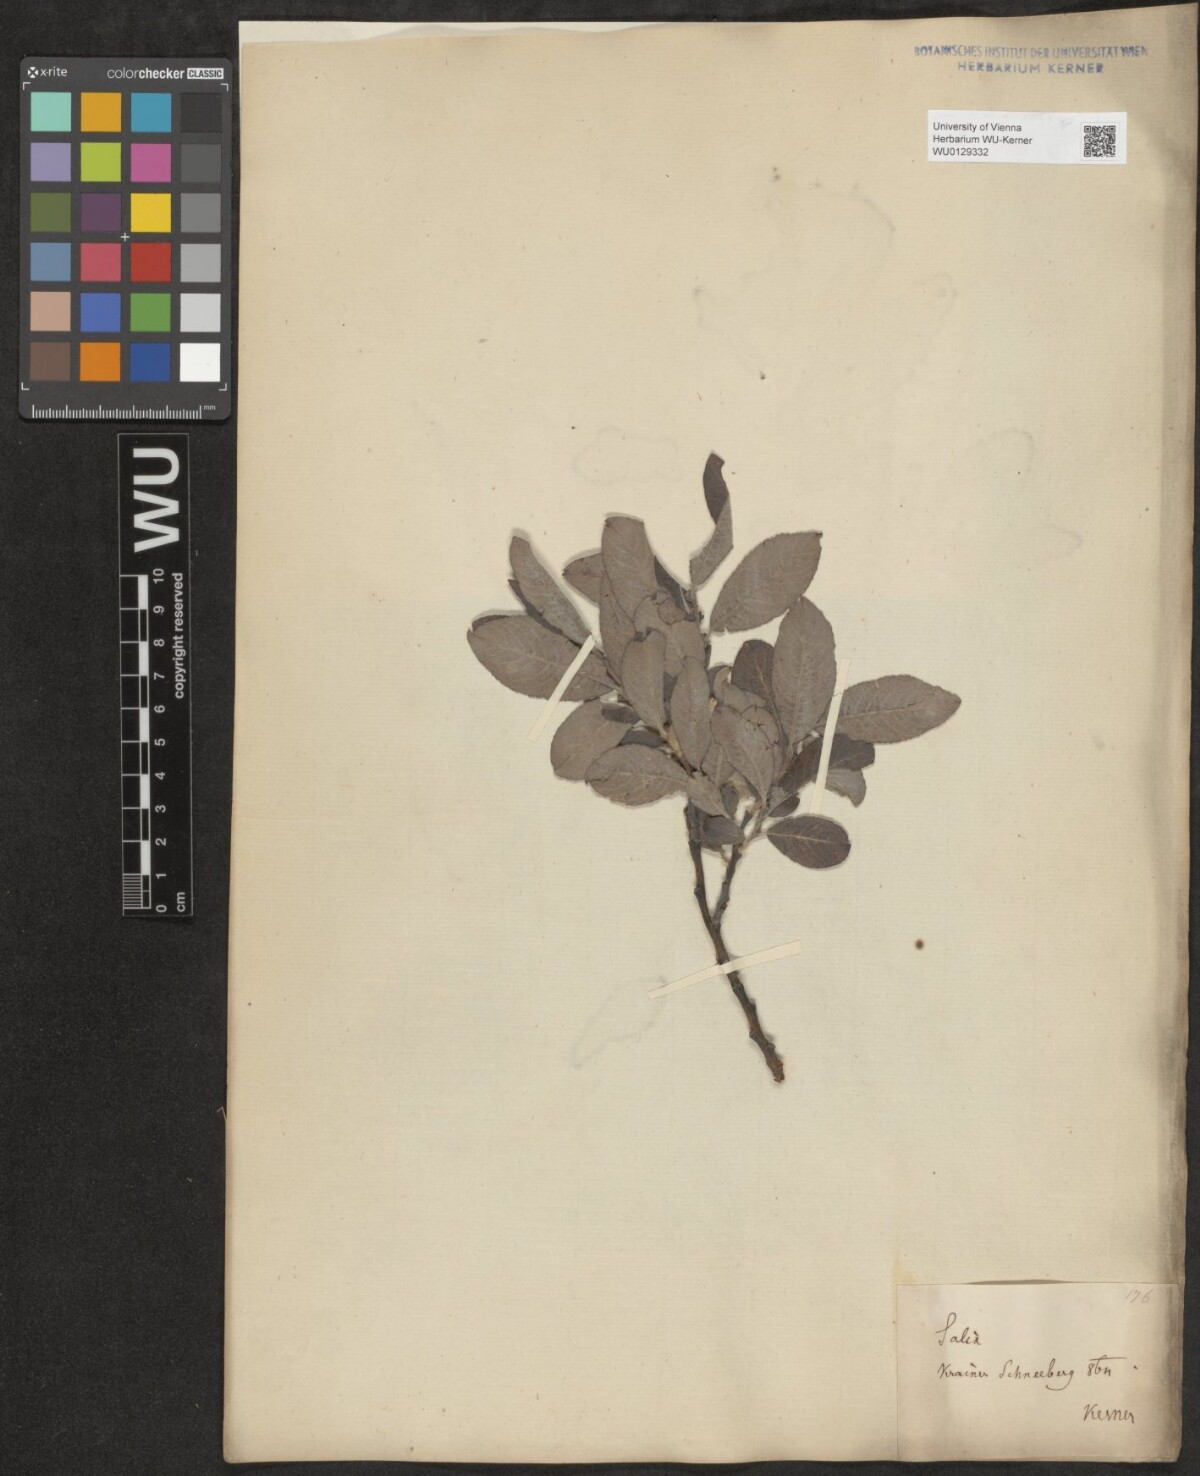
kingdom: Plantae
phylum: Tracheophyta
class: Magnoliopsida
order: Malpighiales
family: Salicaceae
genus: Salix
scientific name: Salix appendiculata
